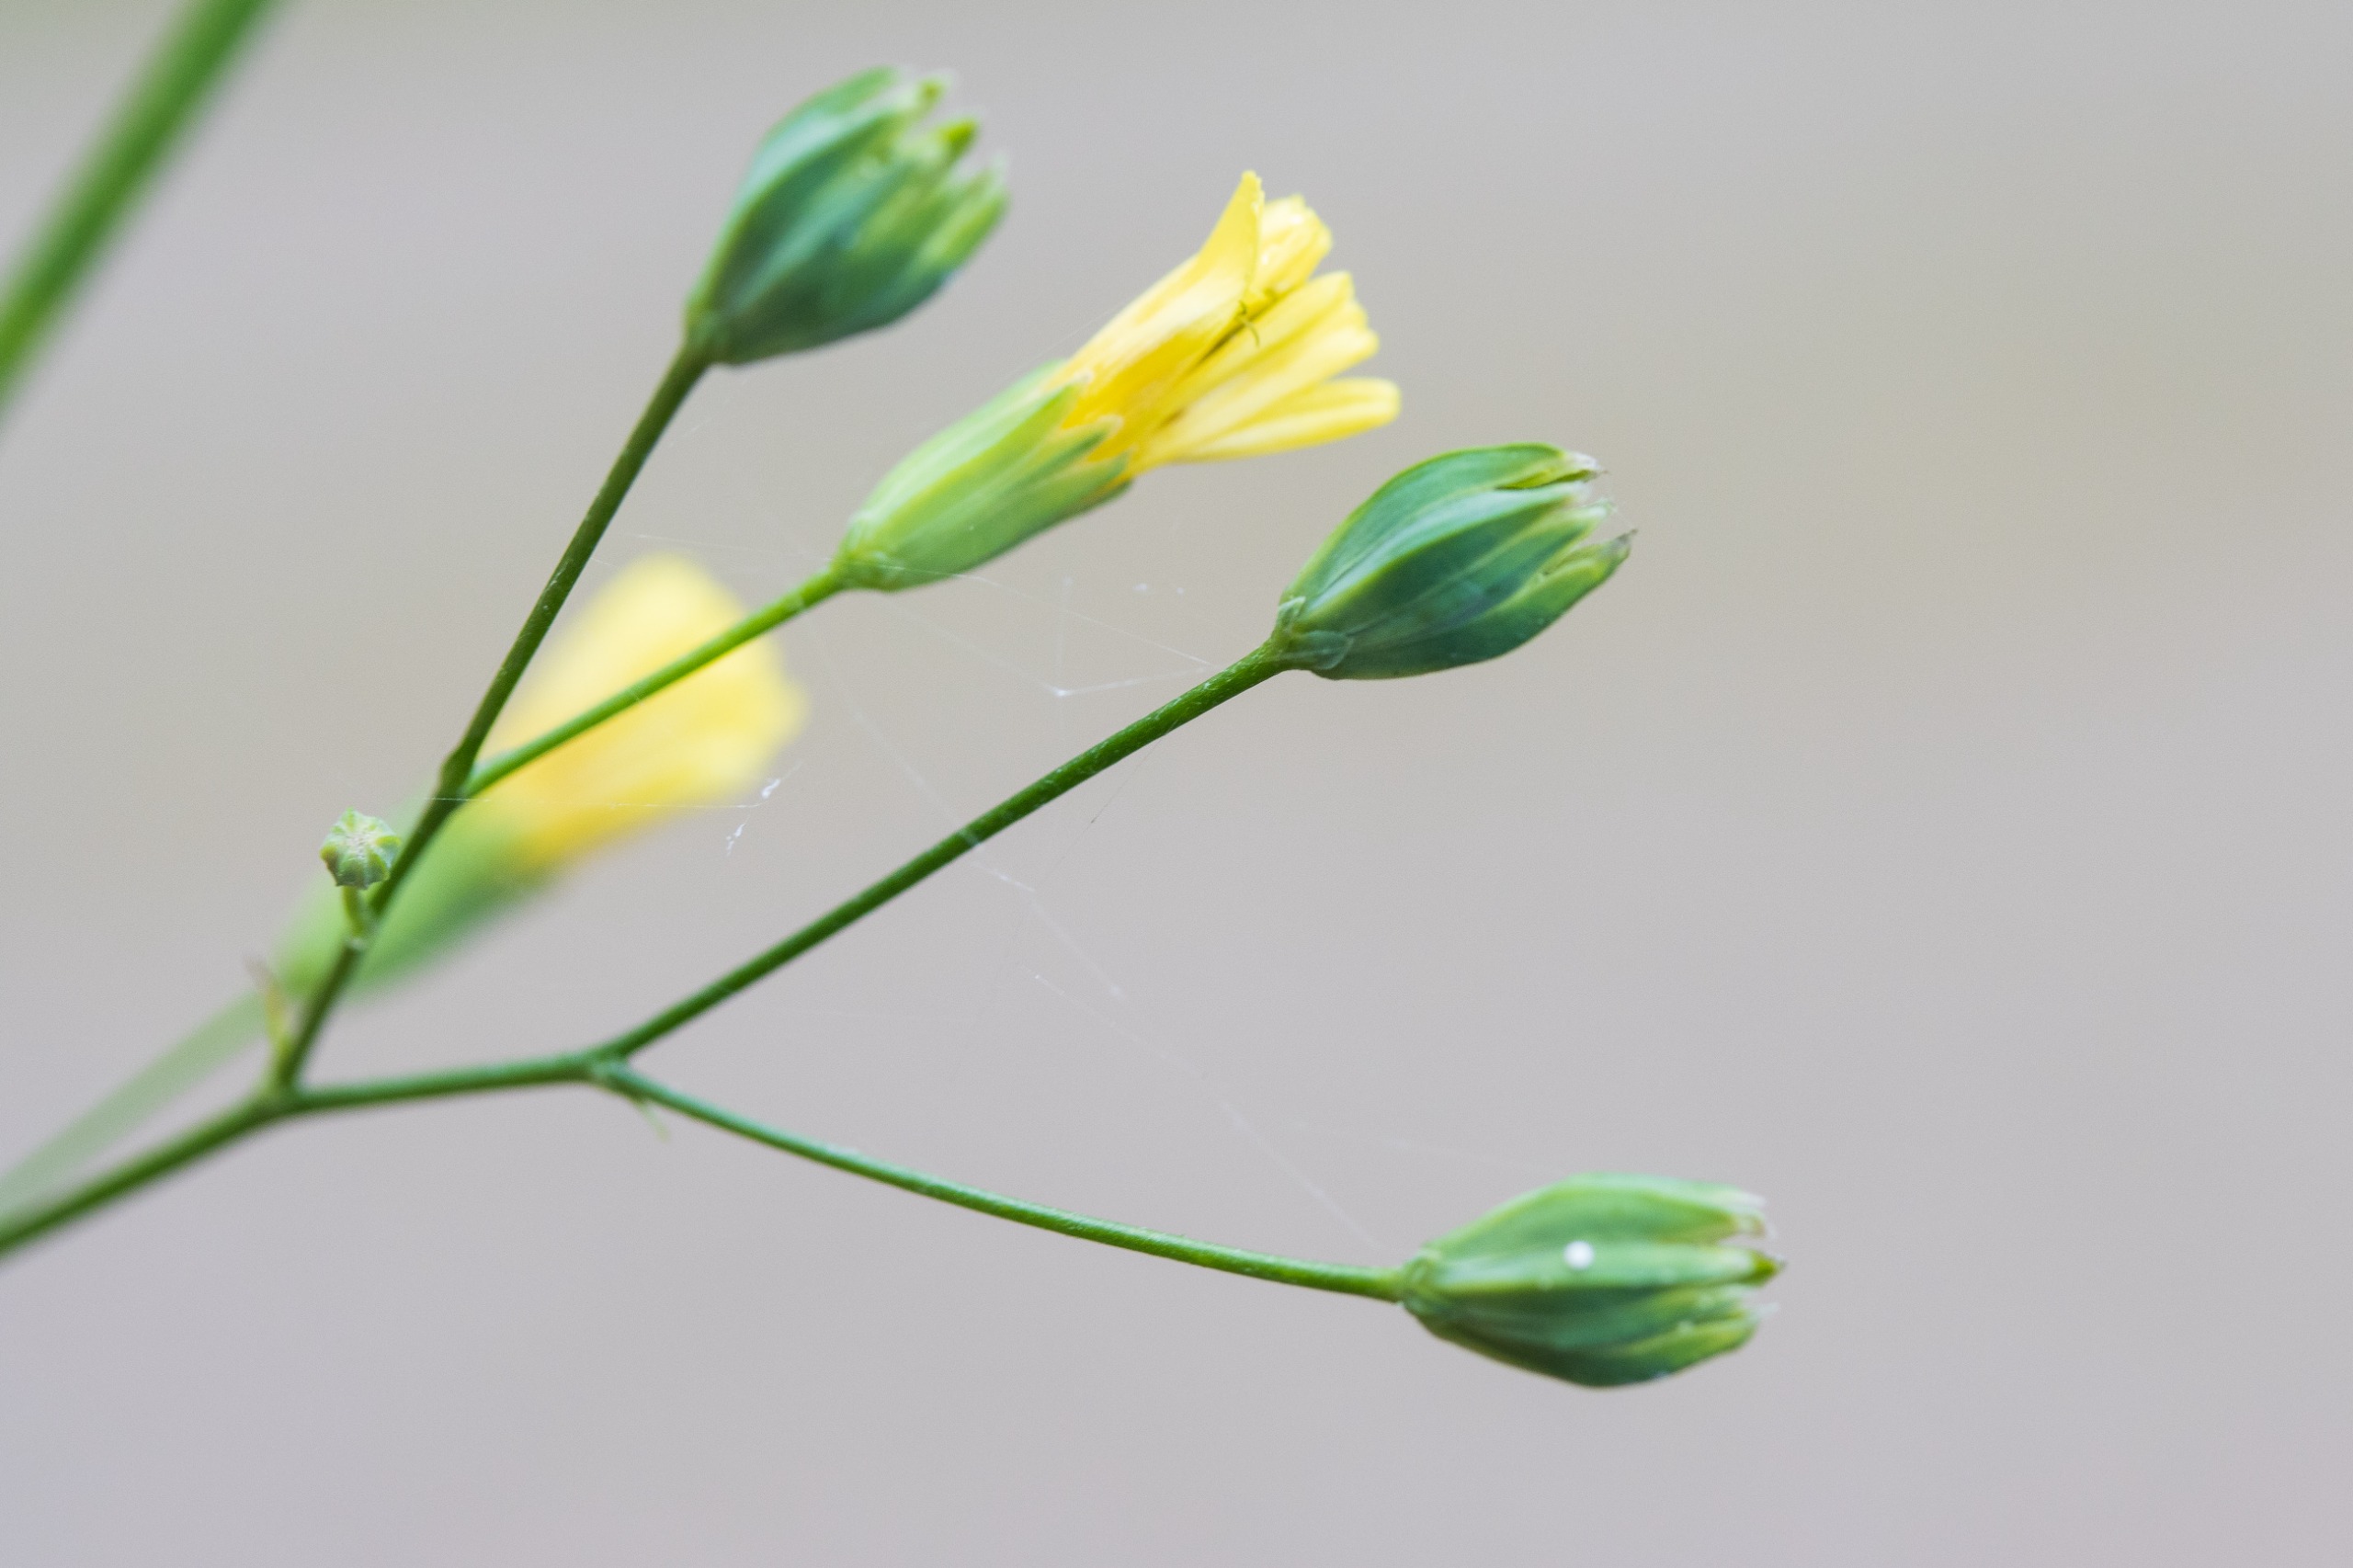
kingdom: Plantae
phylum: Tracheophyta
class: Magnoliopsida
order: Asterales
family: Asteraceae
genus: Lapsana
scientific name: Lapsana communis
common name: Haremad
